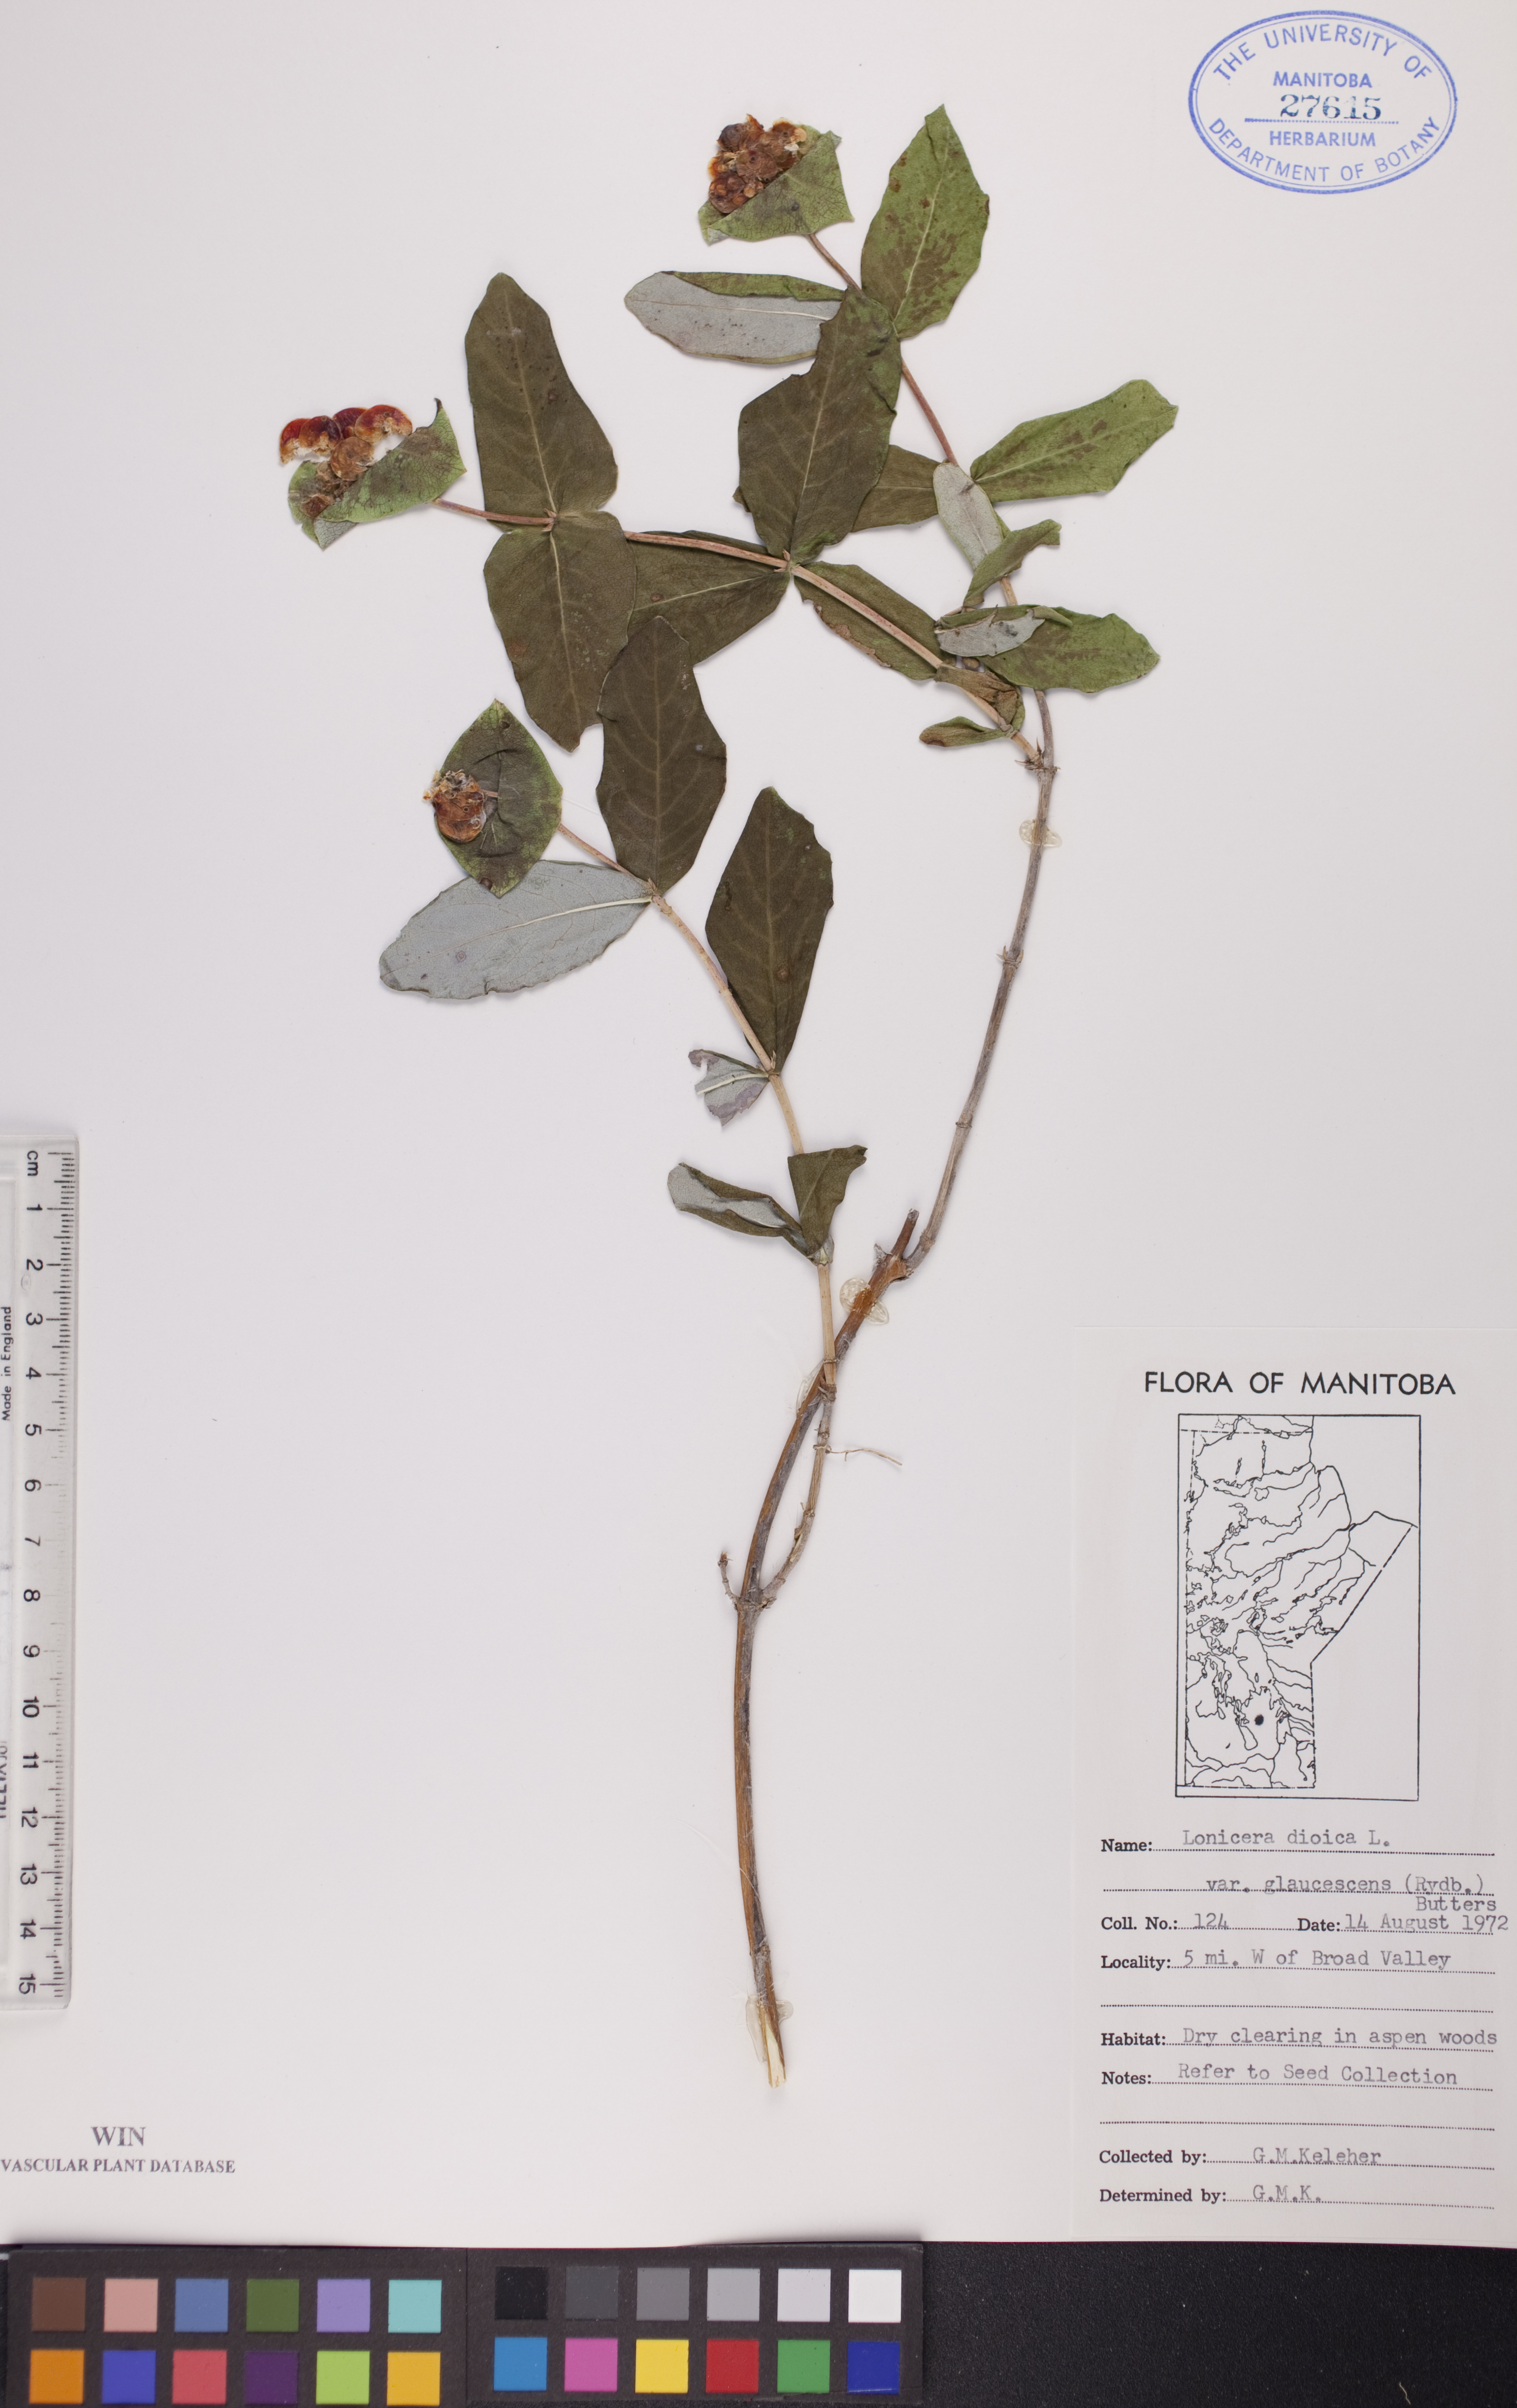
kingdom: Plantae
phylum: Tracheophyta
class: Magnoliopsida
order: Dipsacales
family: Caprifoliaceae
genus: Lonicera
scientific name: Lonicera dioica
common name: Limber honeysuckle
